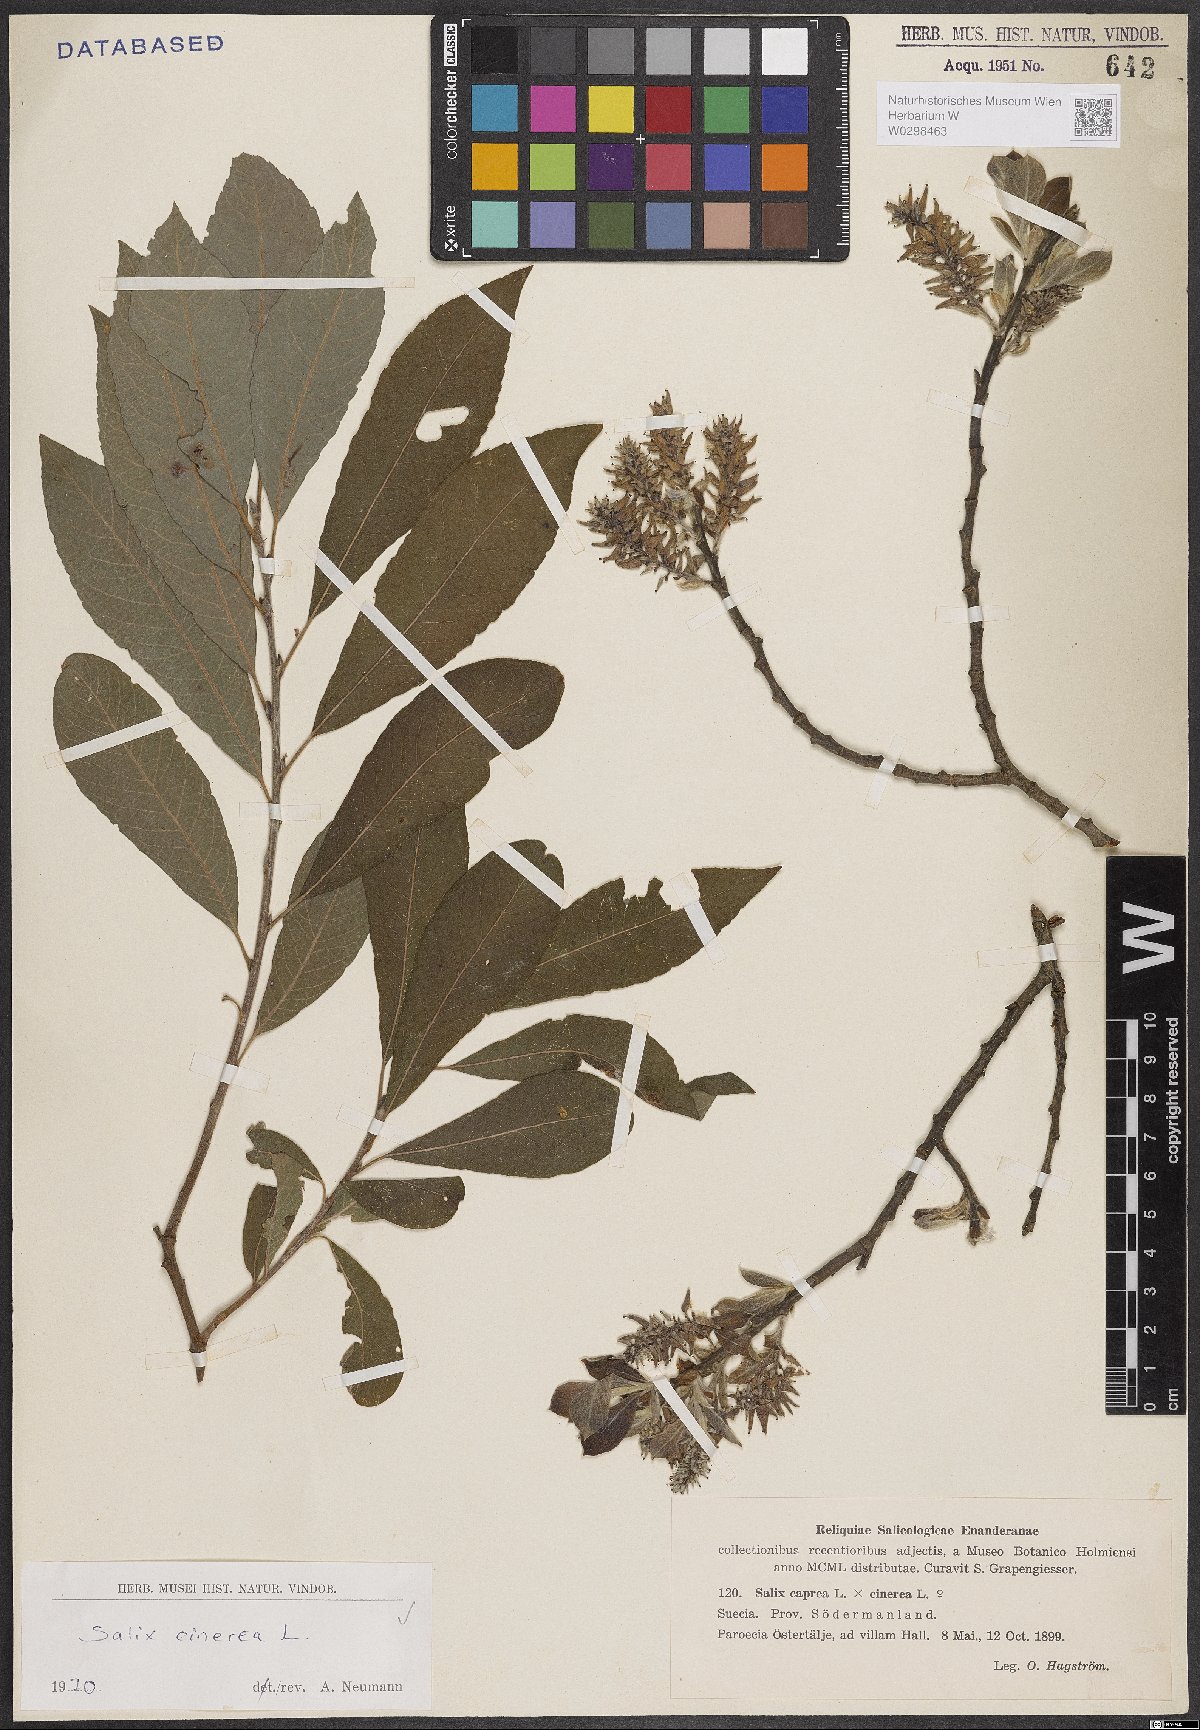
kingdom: Plantae
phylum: Tracheophyta
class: Magnoliopsida
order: Malpighiales
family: Salicaceae
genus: Salix
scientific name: Salix cinerea
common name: Common sallow
